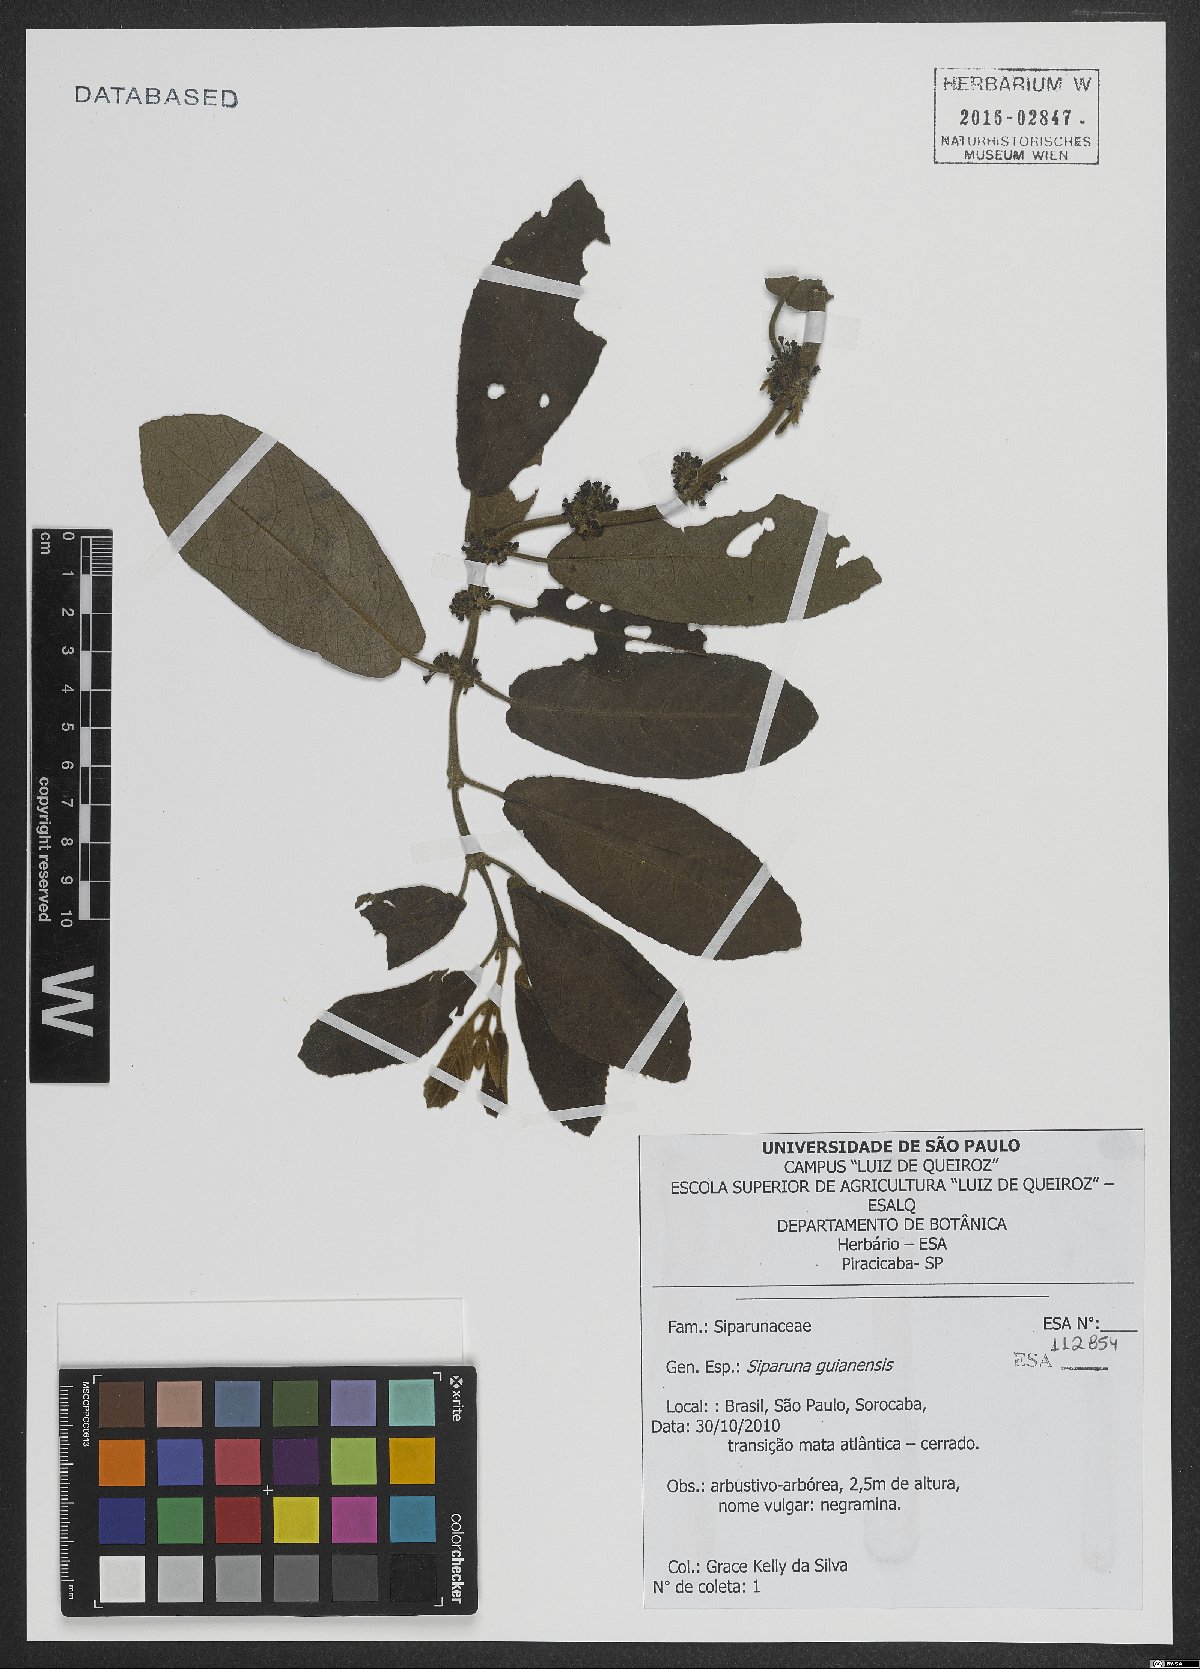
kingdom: Plantae
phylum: Tracheophyta
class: Magnoliopsida
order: Laurales
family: Siparunaceae
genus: Siparuna
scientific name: Siparuna guianensis
